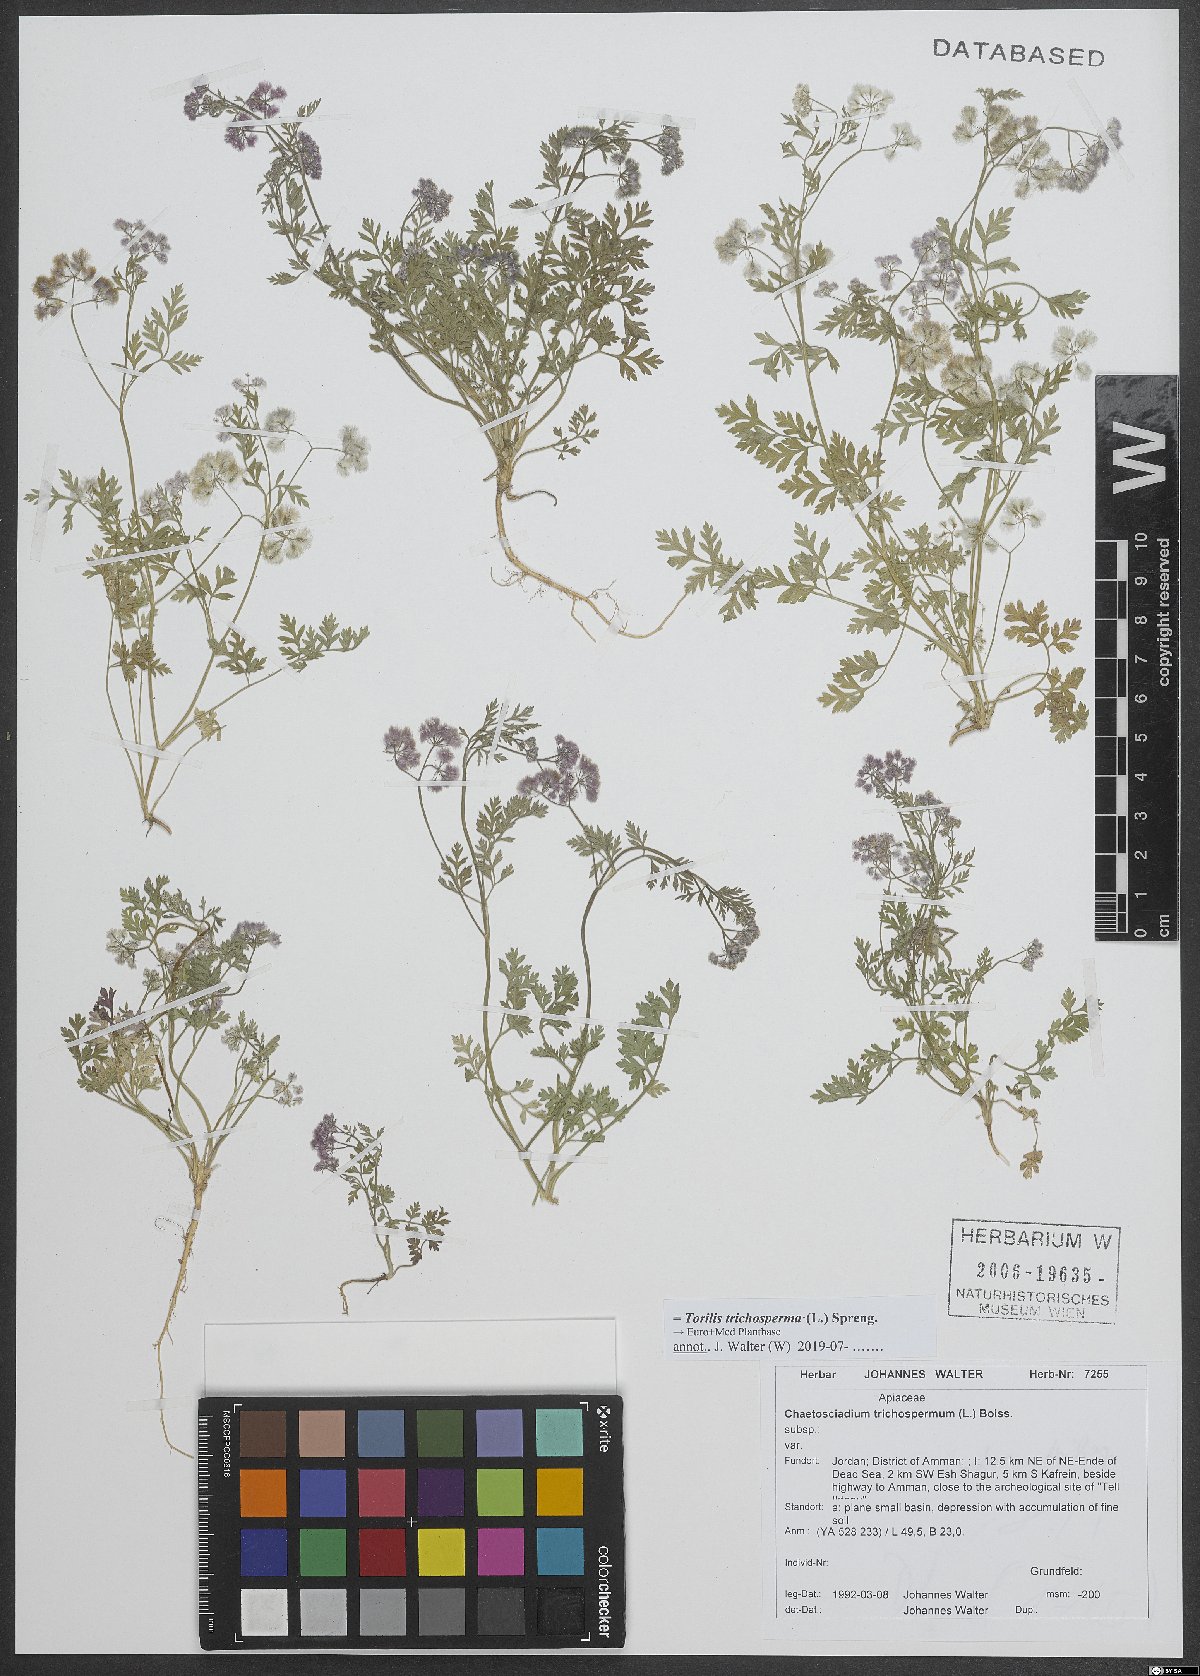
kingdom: Plantae
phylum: Tracheophyta
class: Magnoliopsida
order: Apiales
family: Apiaceae
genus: Torilis
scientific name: Torilis trichosperma
